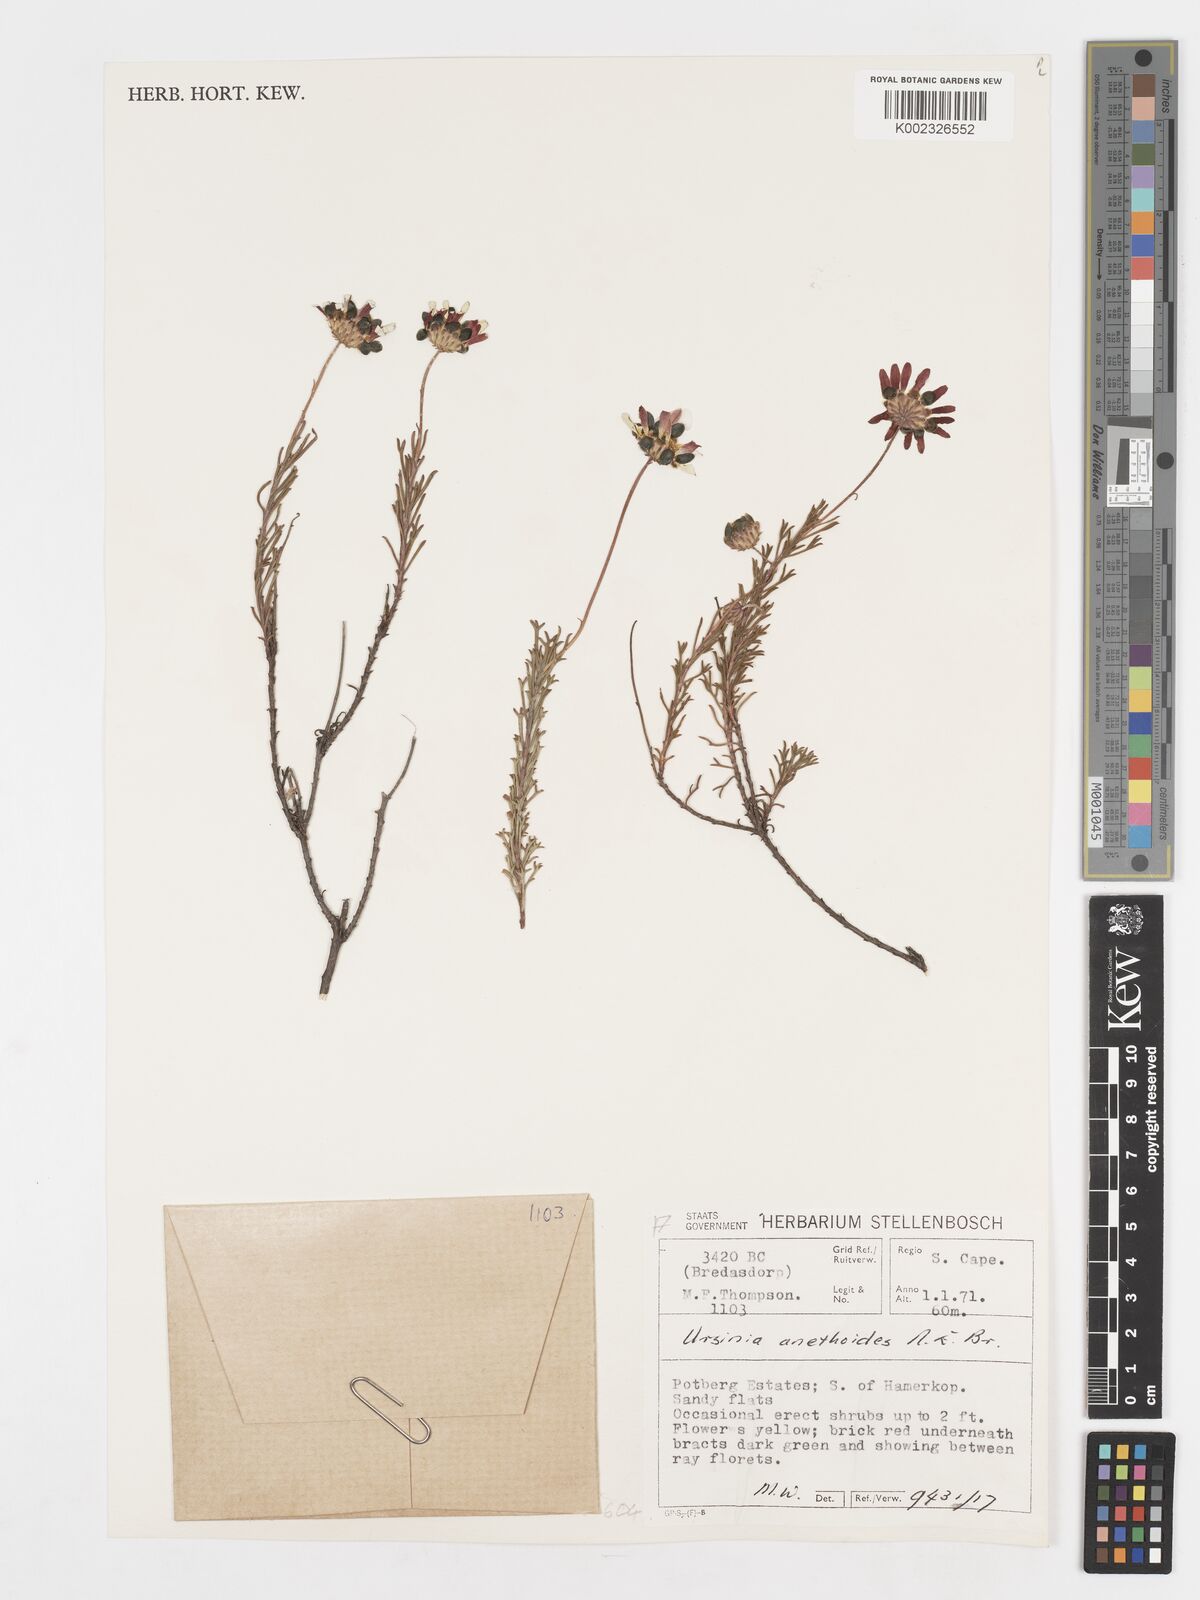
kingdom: Plantae
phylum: Tracheophyta
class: Magnoliopsida
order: Asterales
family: Asteraceae
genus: Ursinia
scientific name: Ursinia anethoides
